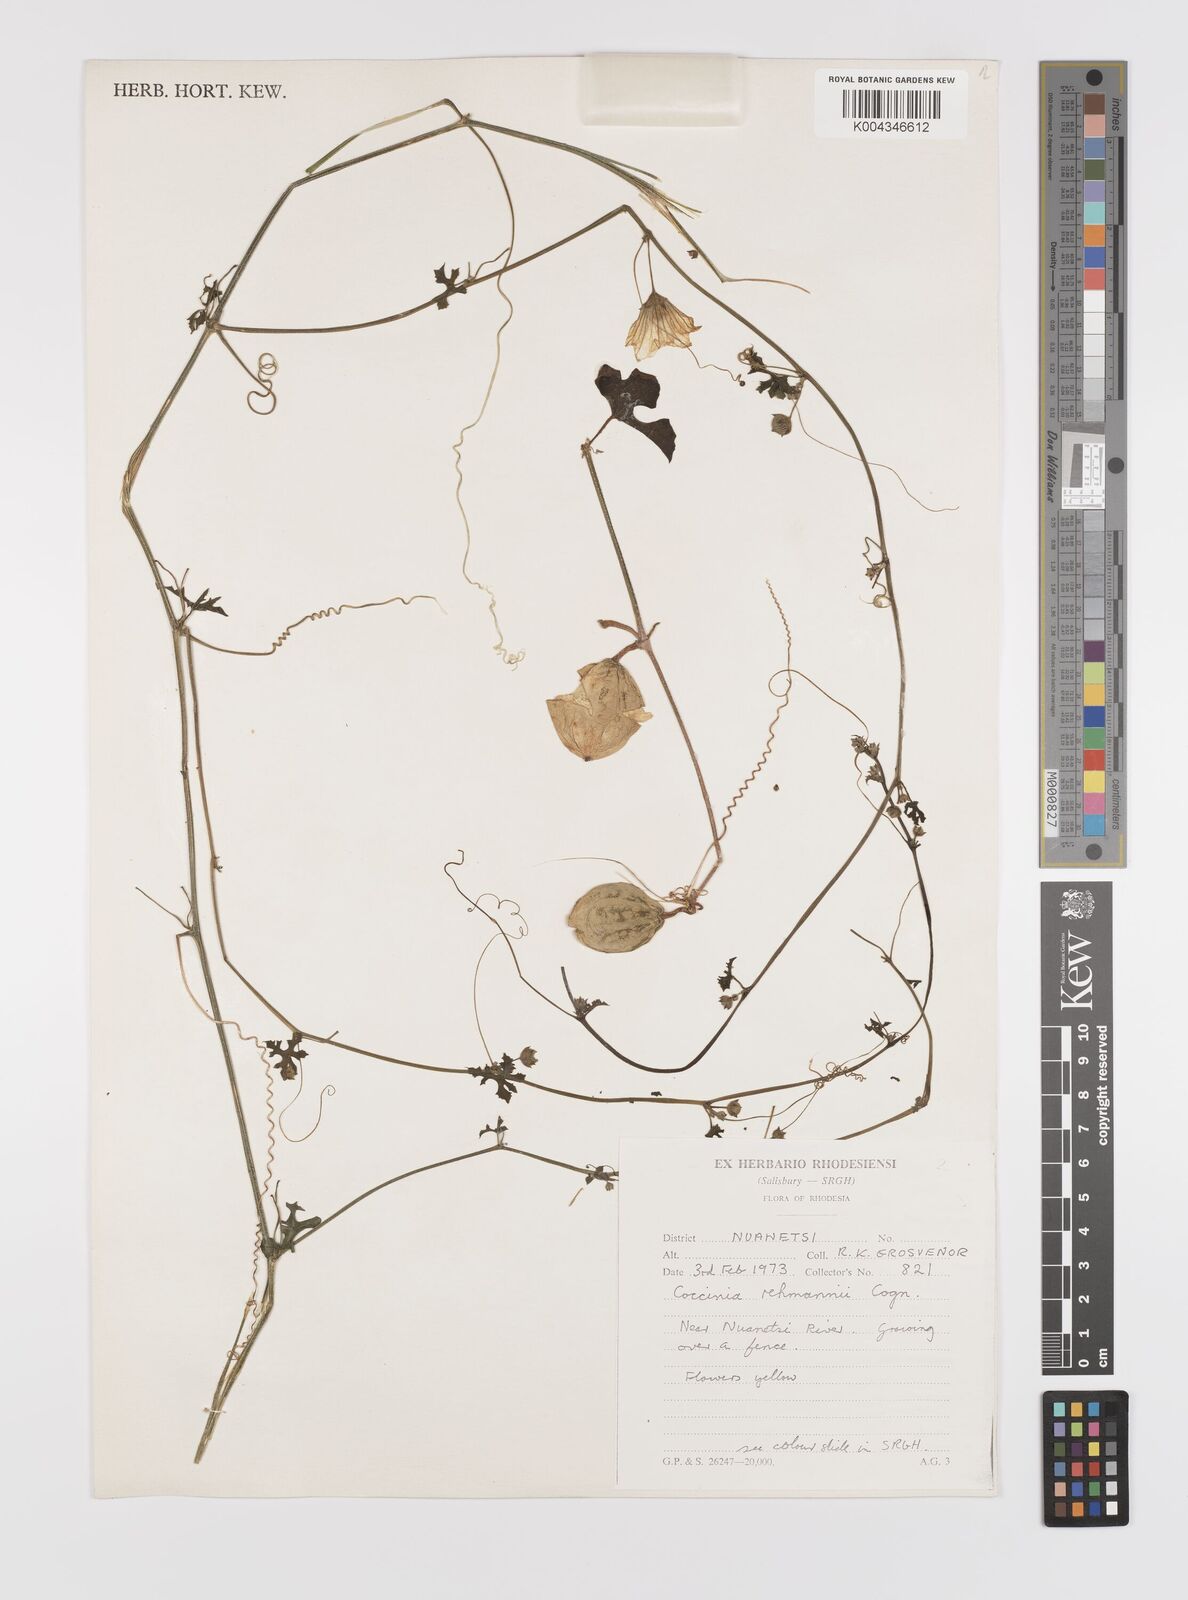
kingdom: Plantae
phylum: Tracheophyta
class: Magnoliopsida
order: Cucurbitales
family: Cucurbitaceae
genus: Coccinia
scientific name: Coccinia rehmannii
